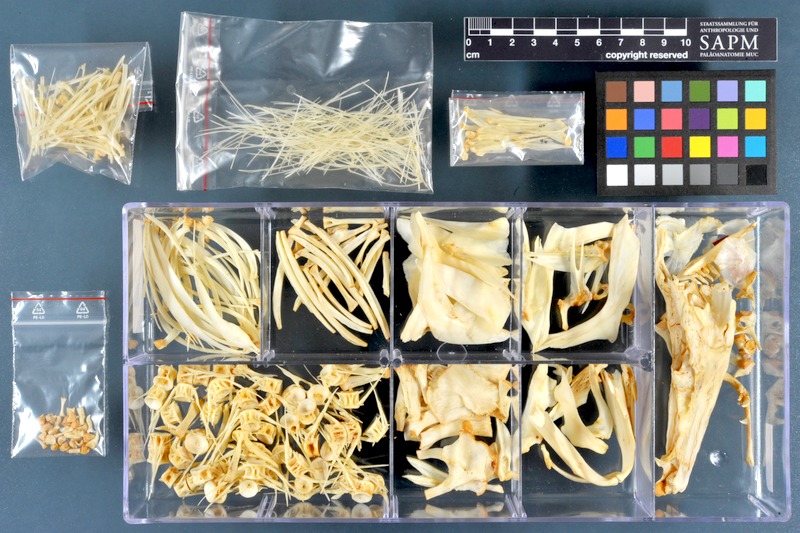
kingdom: Animalia
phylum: Chordata
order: Cypriniformes
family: Cyprinidae
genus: Leuciscus
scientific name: Leuciscus vorax
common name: Mesopotamian asp
